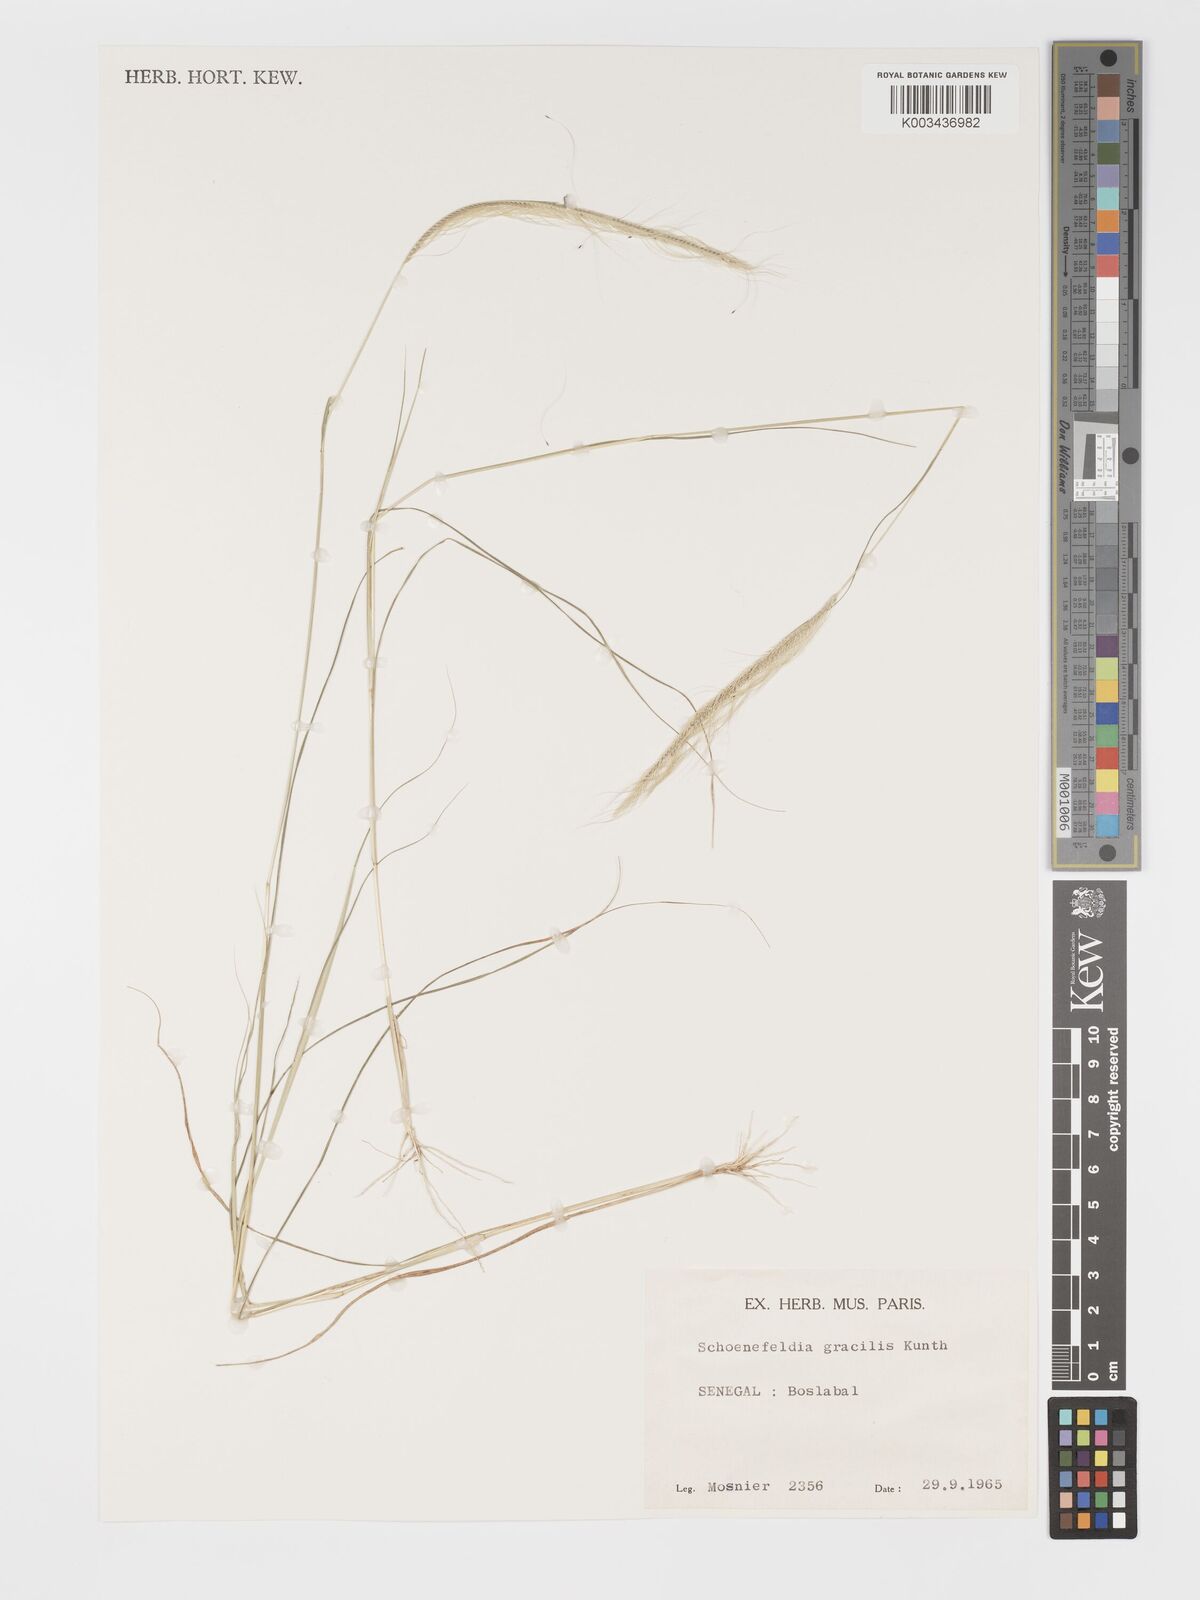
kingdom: Plantae
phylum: Tracheophyta
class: Liliopsida
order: Poales
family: Poaceae
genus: Schoenefeldia
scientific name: Schoenefeldia gracilis
